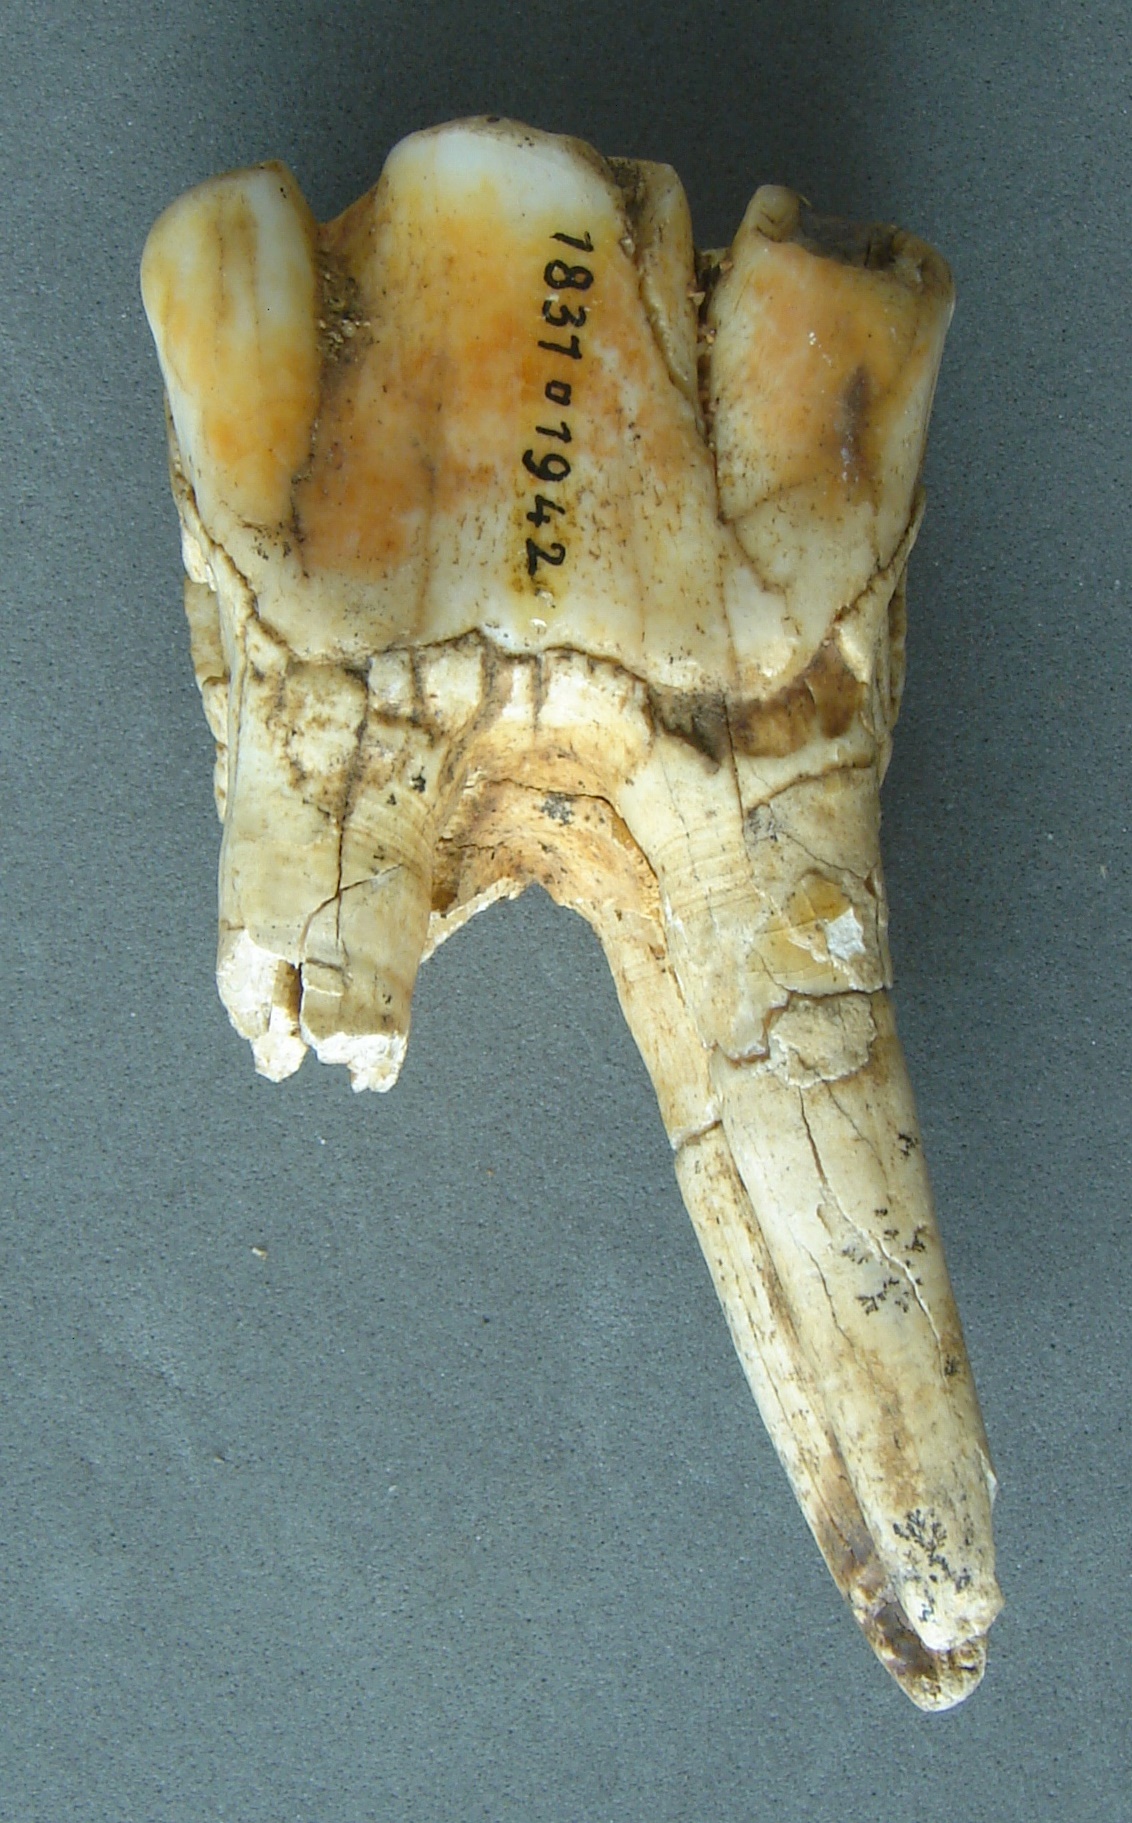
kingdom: Animalia
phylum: Chordata
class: Mammalia
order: Perissodactyla
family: Rhinocerotidae
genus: Rhinoceros
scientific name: Rhinoceros
